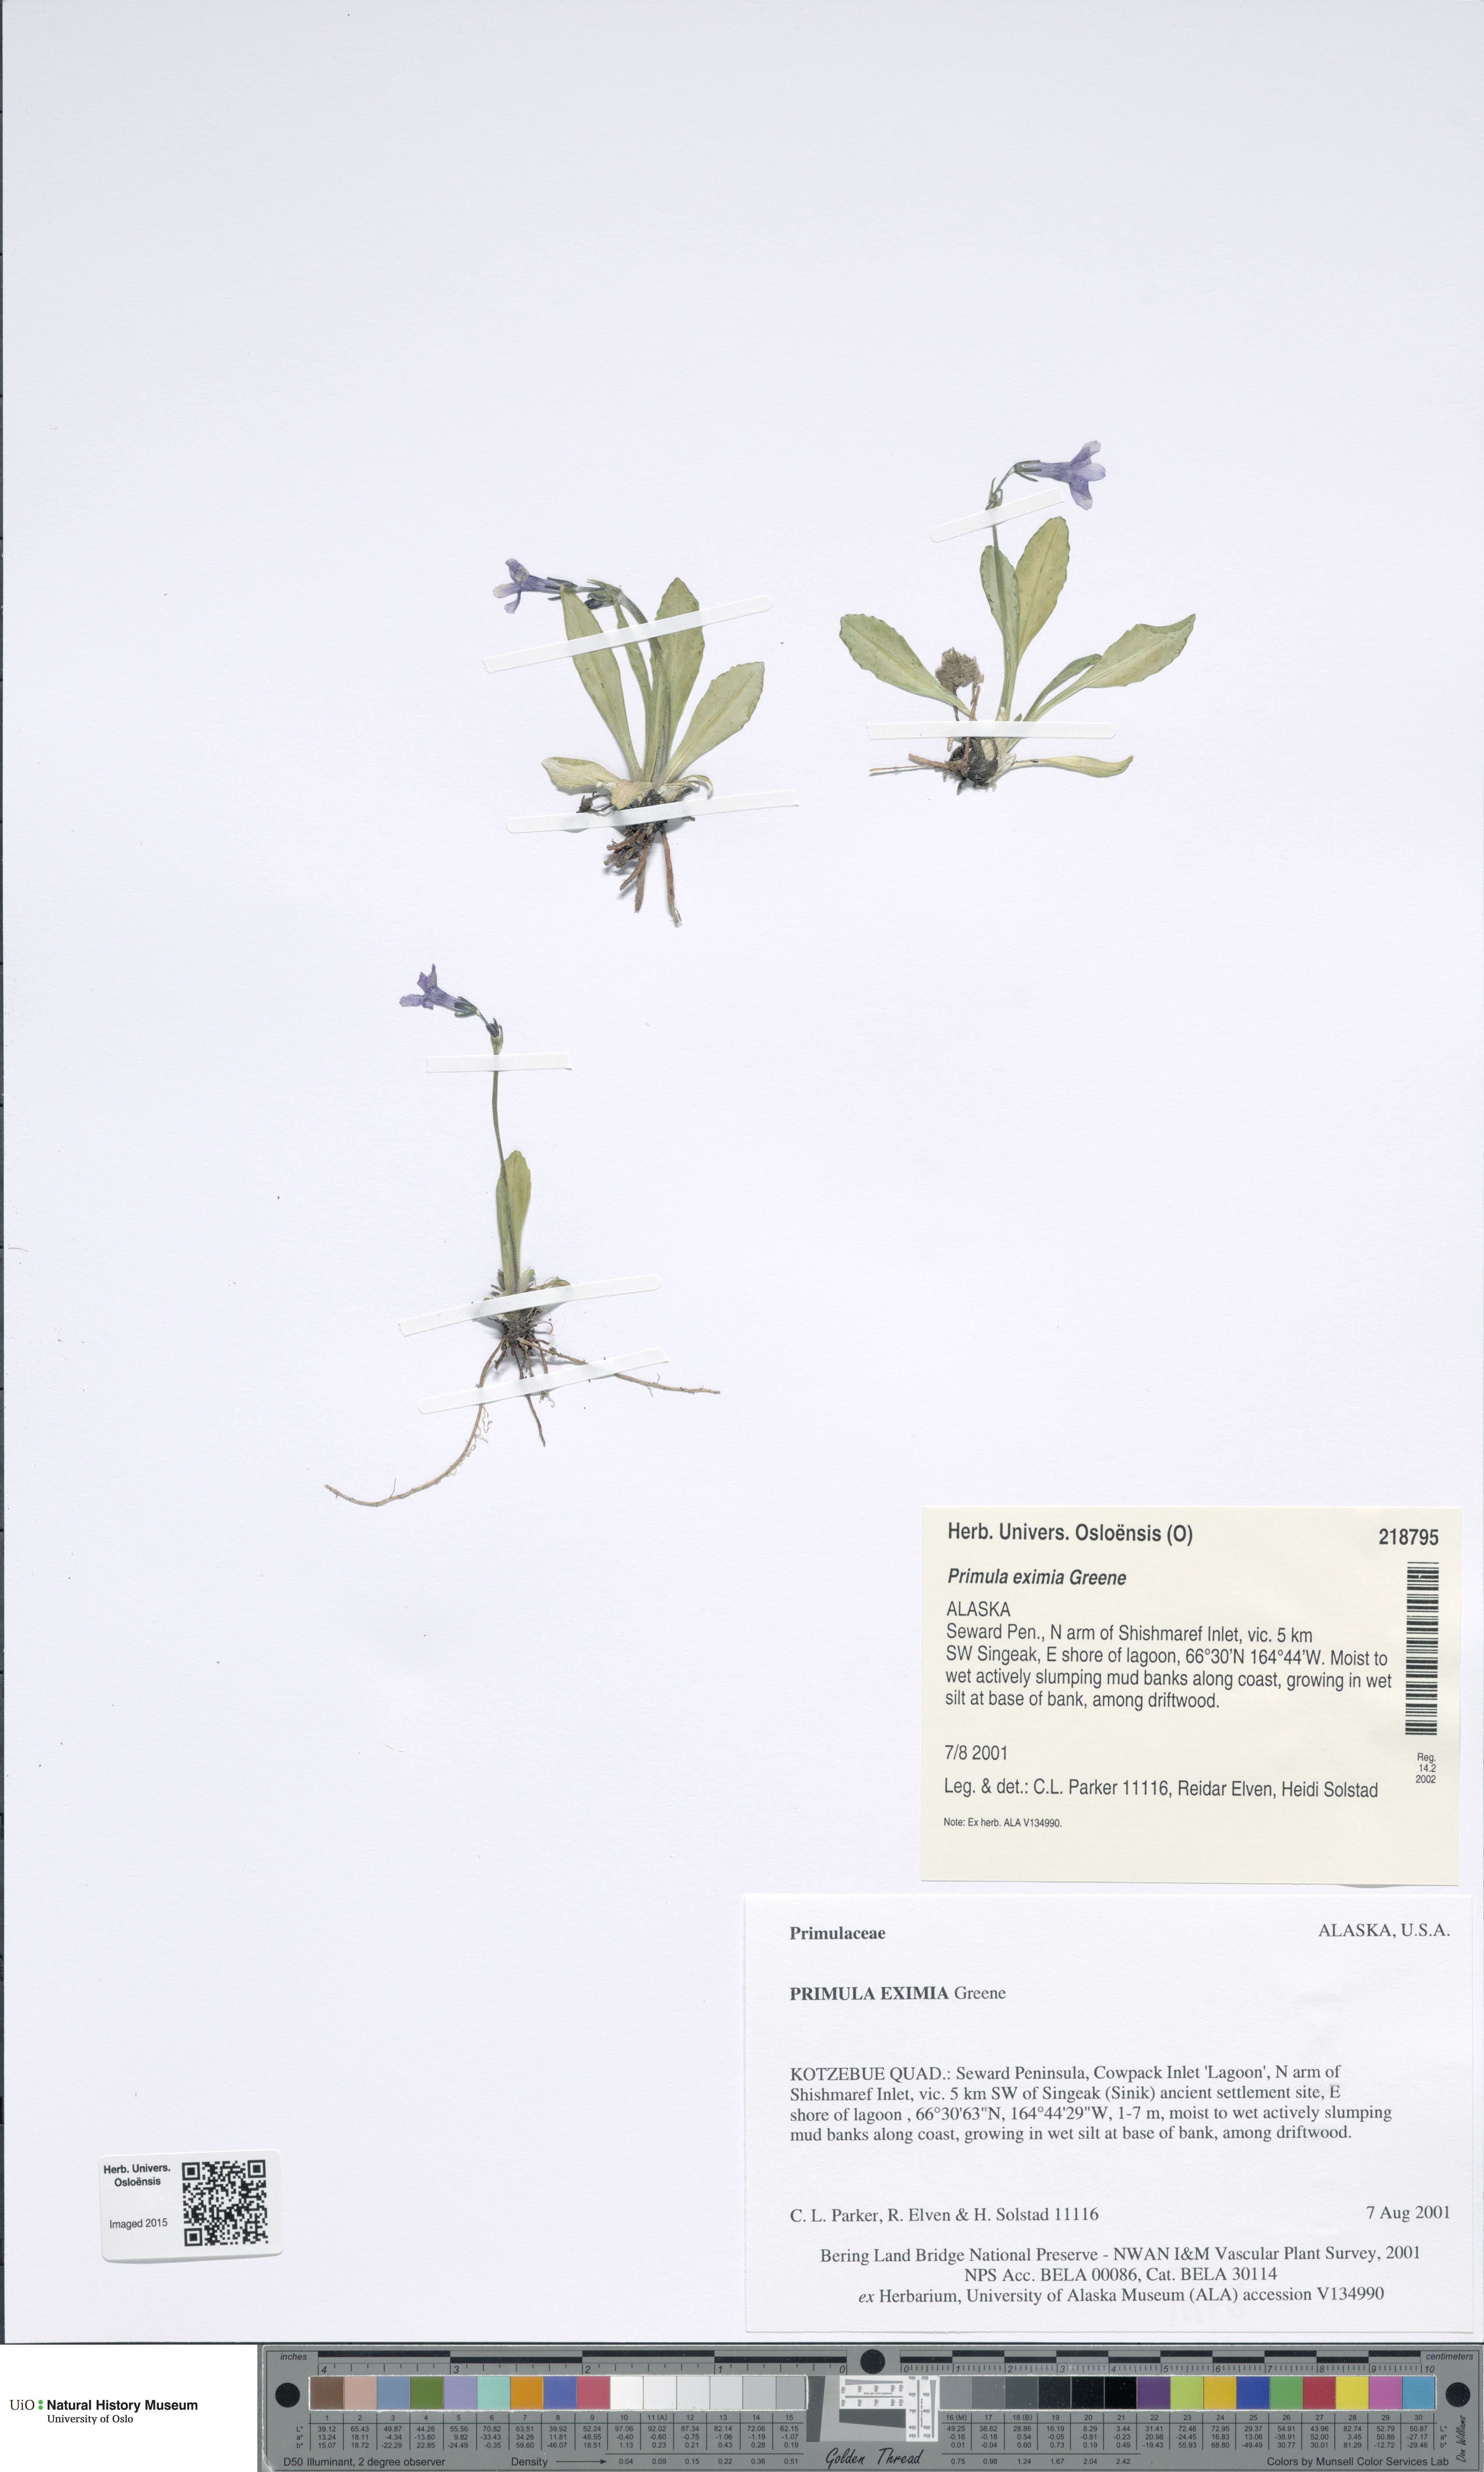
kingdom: Plantae
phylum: Tracheophyta
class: Magnoliopsida
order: Ericales
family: Primulaceae
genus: Primula
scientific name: Primula eximia
